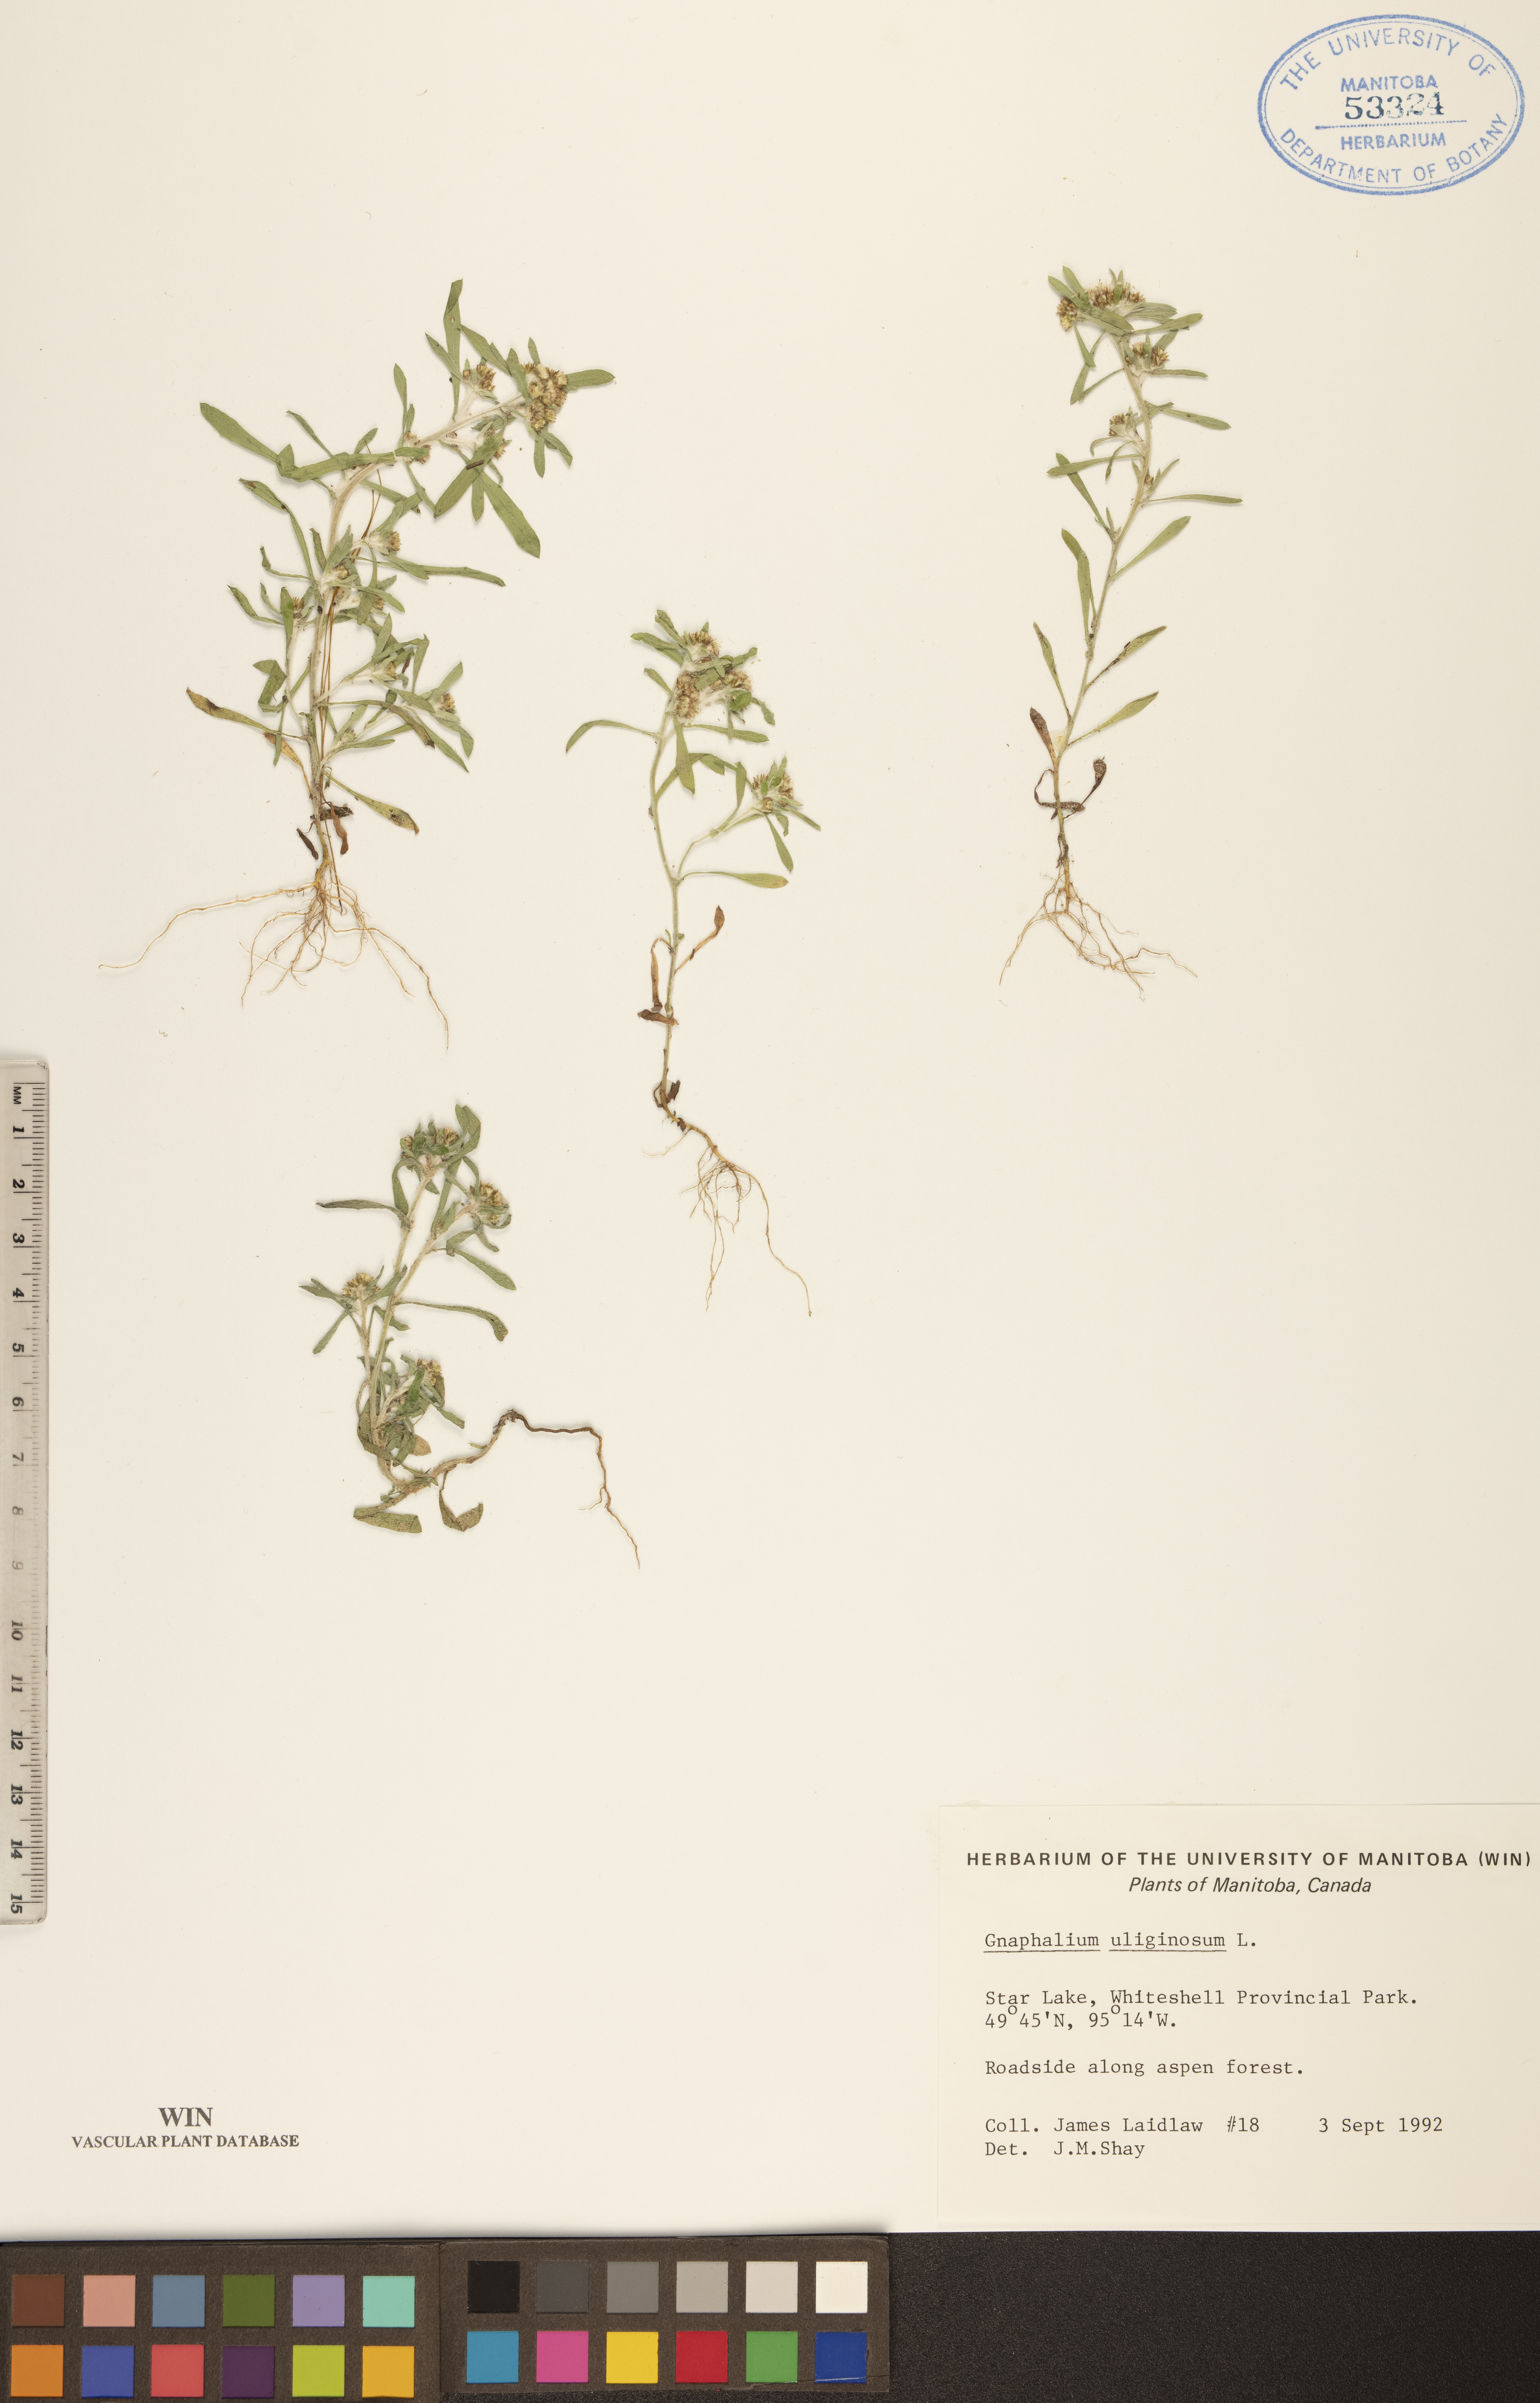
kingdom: Plantae
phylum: Tracheophyta
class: Magnoliopsida
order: Asterales
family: Asteraceae
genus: Gnaphalium
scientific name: Gnaphalium uliginosum
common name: Marsh cudweed
